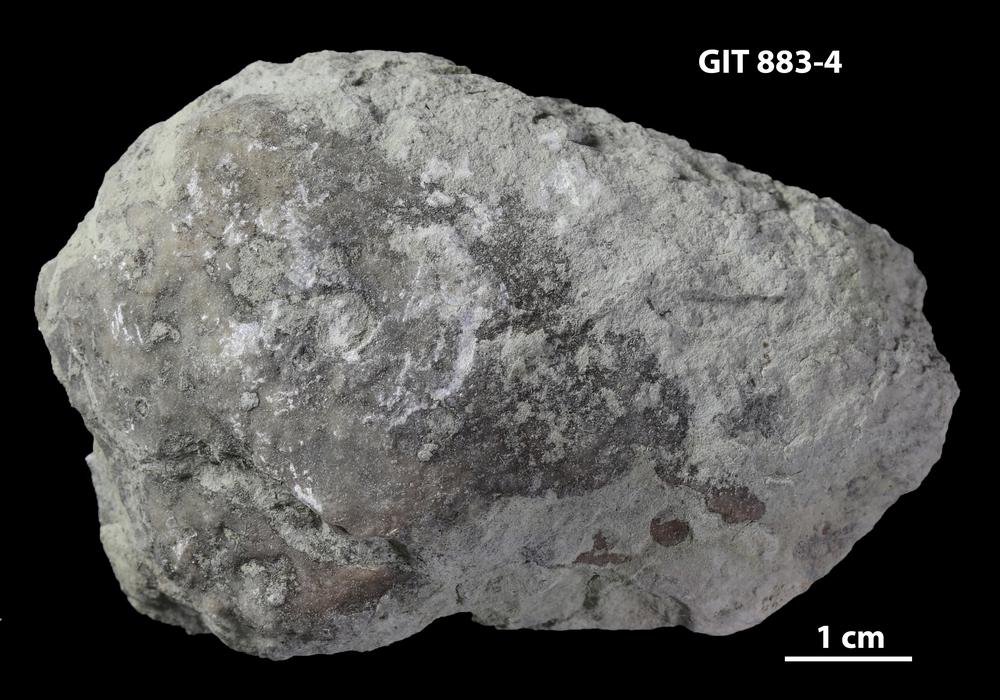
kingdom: Animalia
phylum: Porifera
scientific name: Porifera
